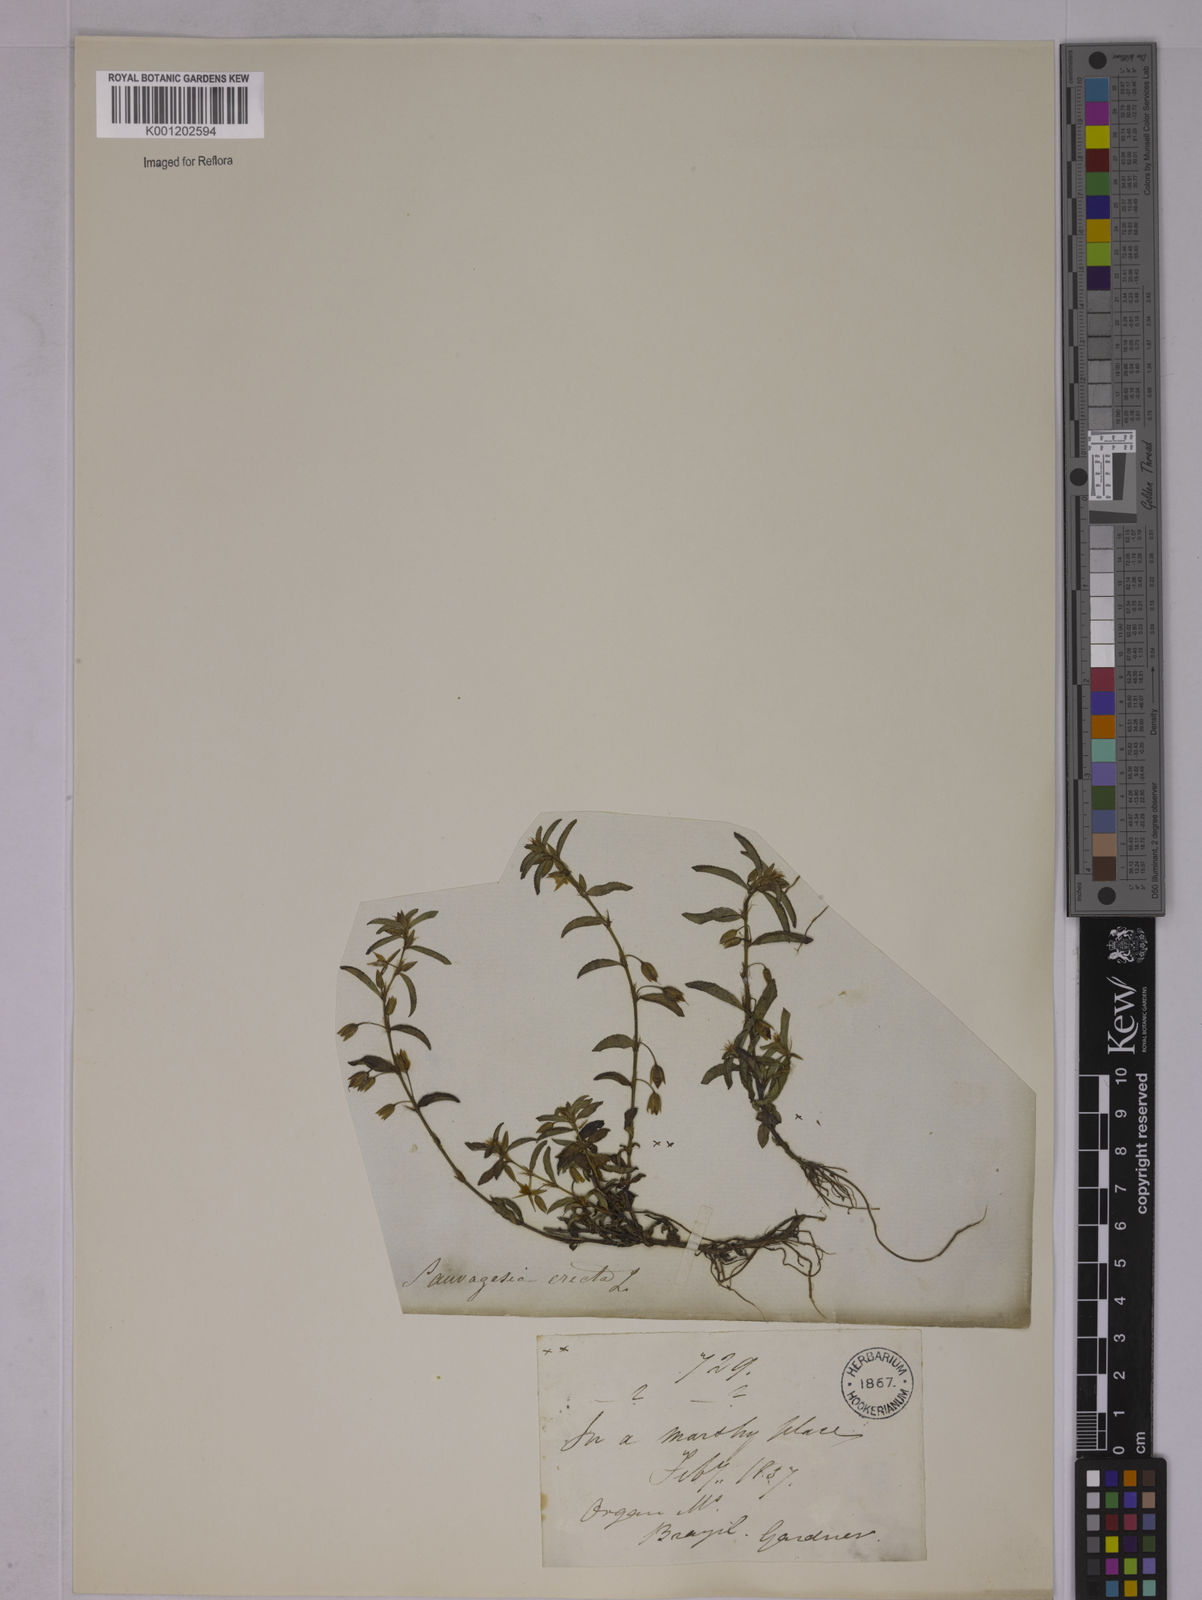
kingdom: Plantae
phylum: Tracheophyta
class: Magnoliopsida
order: Malpighiales
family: Ochnaceae
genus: Sauvagesia
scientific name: Sauvagesia erecta
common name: Creole tea
